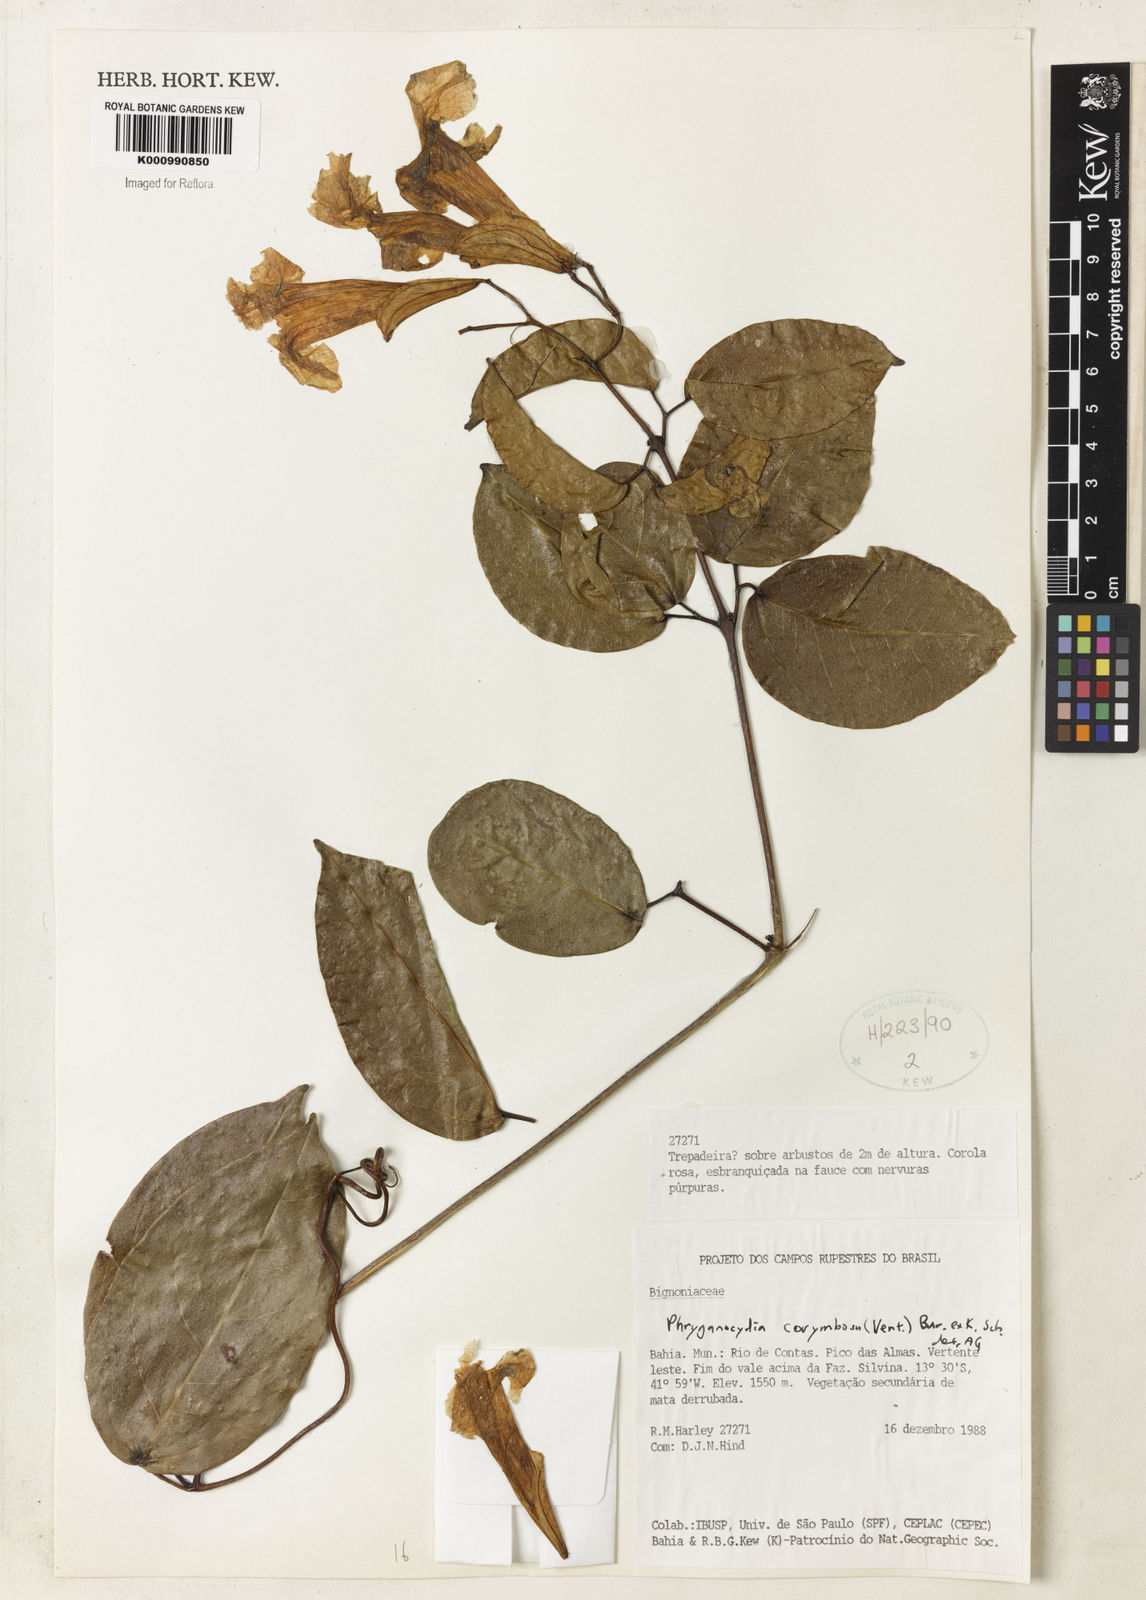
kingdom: Plantae
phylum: Tracheophyta
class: Magnoliopsida
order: Lamiales
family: Bignoniaceae
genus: Bignonia
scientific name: Bignonia corymbosa
